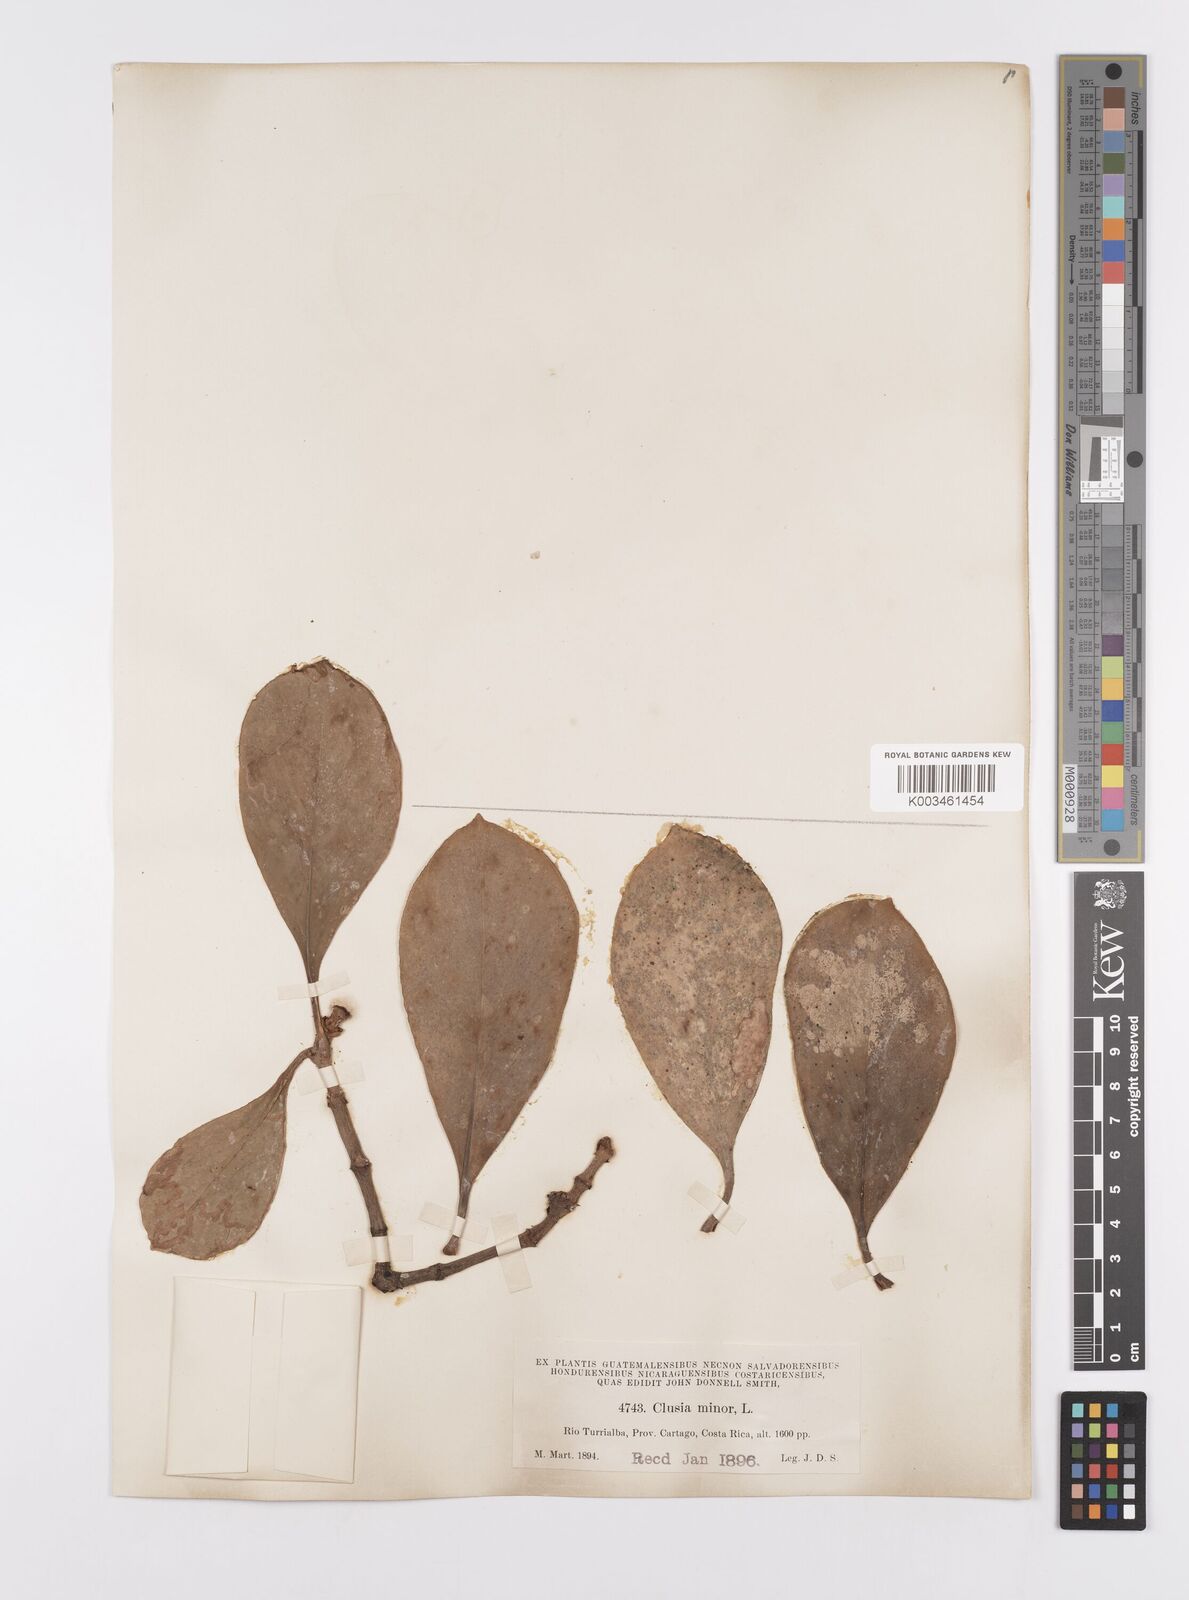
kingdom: Plantae
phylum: Tracheophyta
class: Magnoliopsida
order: Malpighiales
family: Clusiaceae
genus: Clusia
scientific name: Clusia minor
